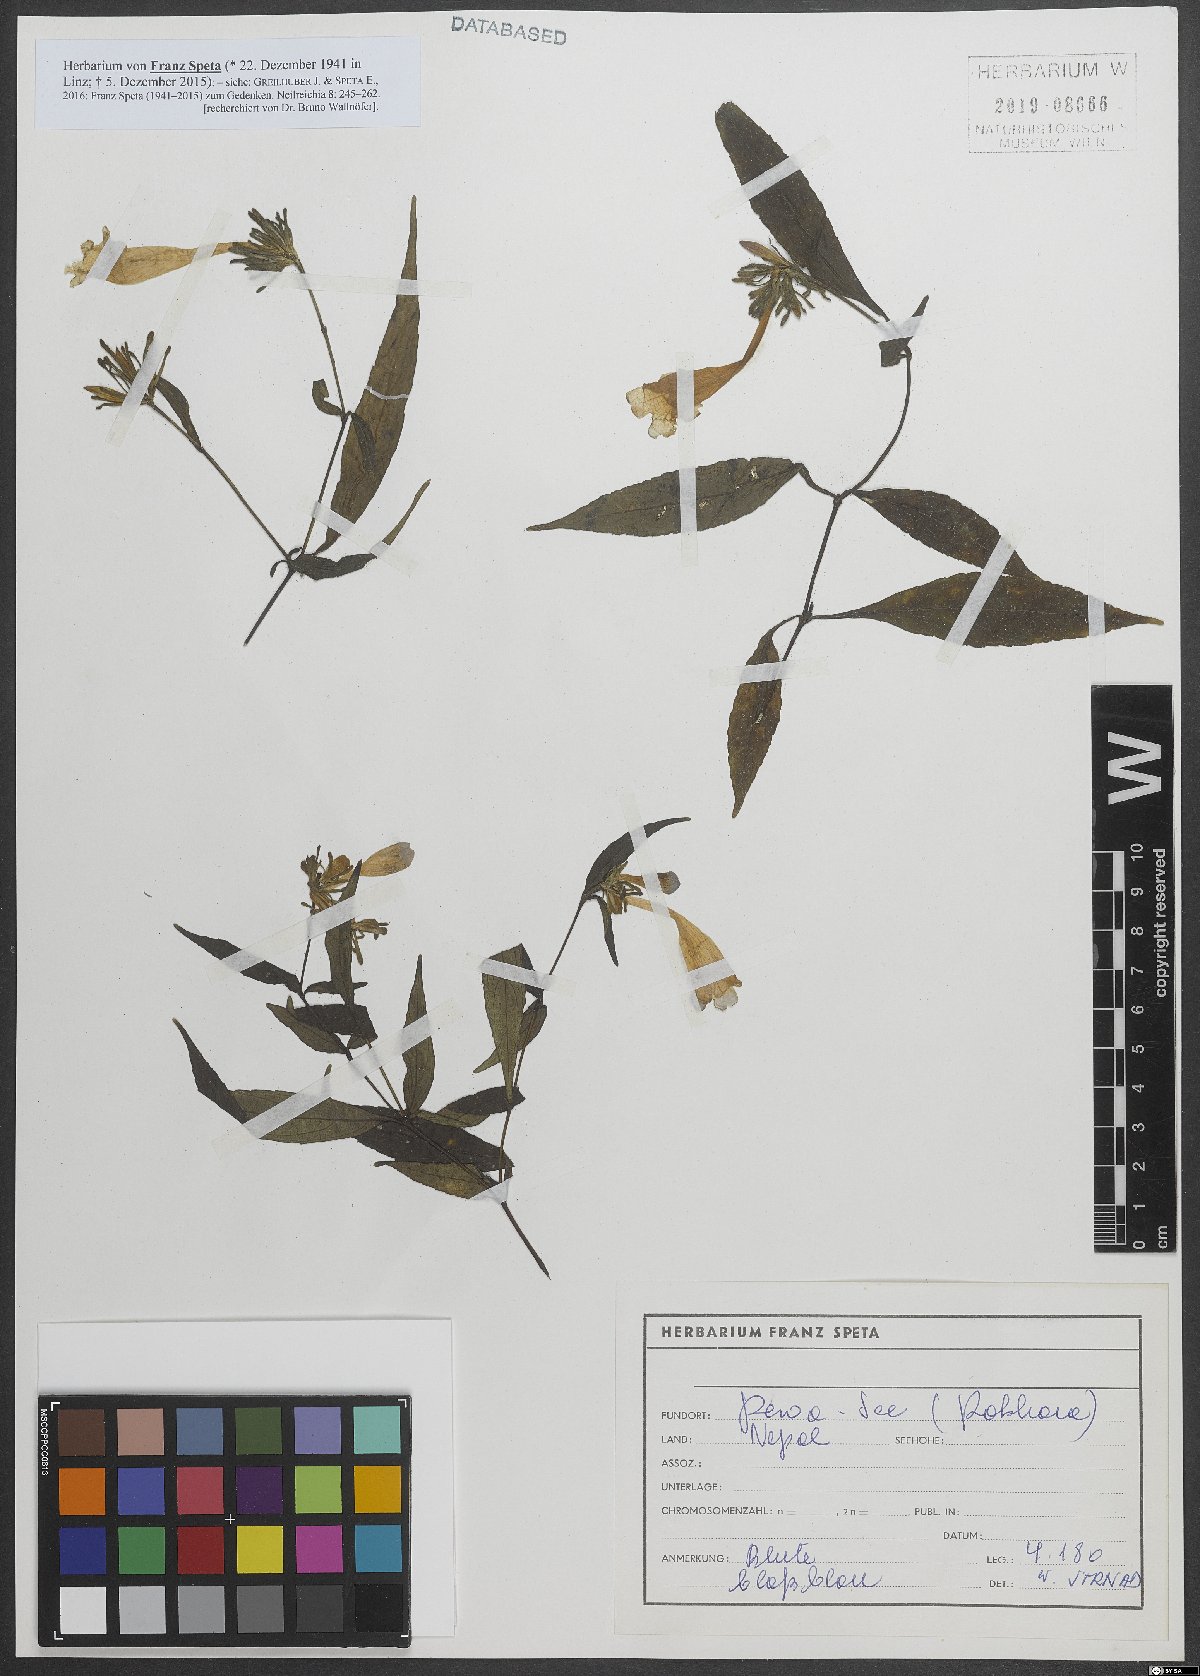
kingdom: Plantae
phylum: Tracheophyta
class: Magnoliopsida
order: Lamiales
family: Acanthaceae
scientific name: Acanthaceae
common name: Acanthaceae
